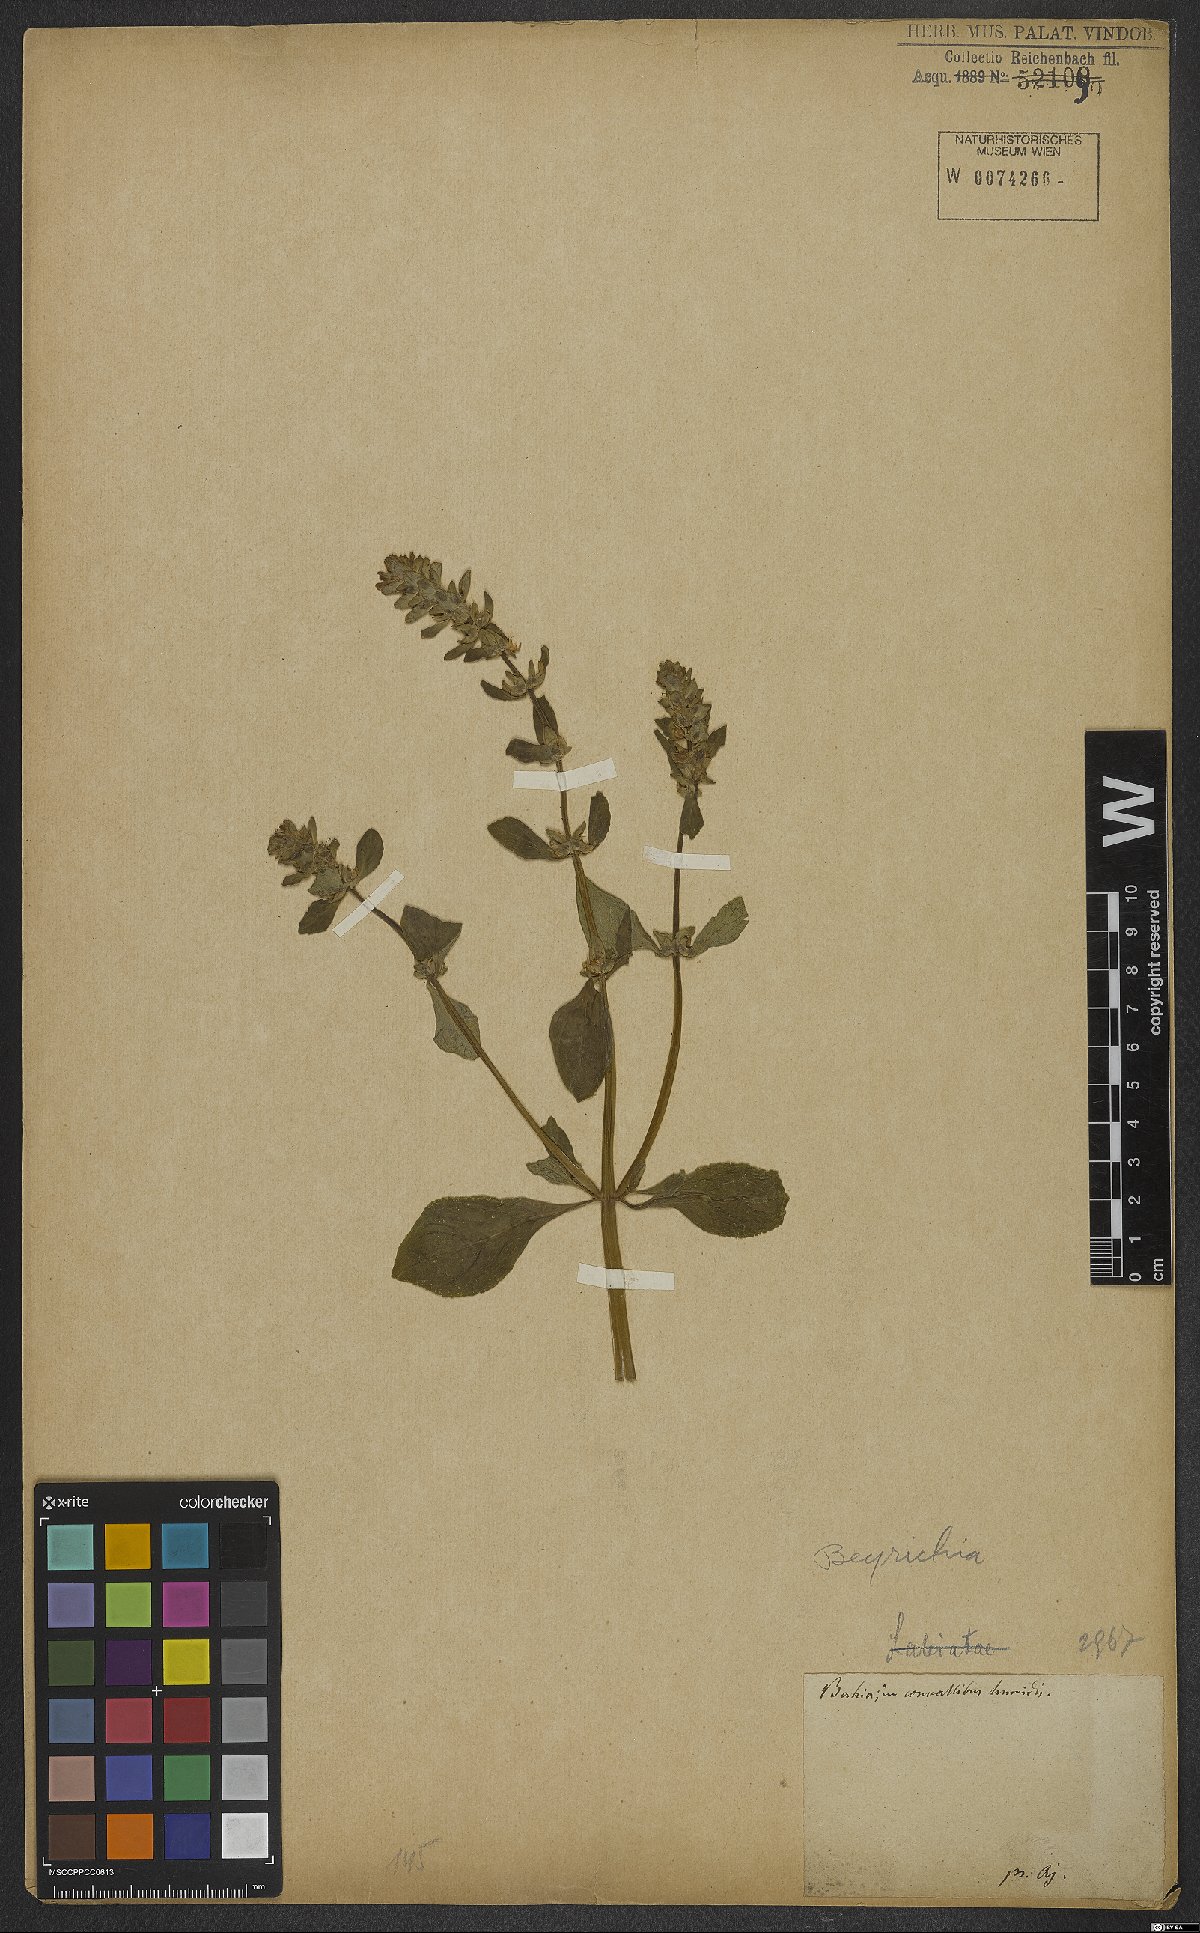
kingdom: Plantae
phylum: Tracheophyta
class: Magnoliopsida
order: Lamiales
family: Plantaginaceae
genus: Matourea
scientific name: Matourea
